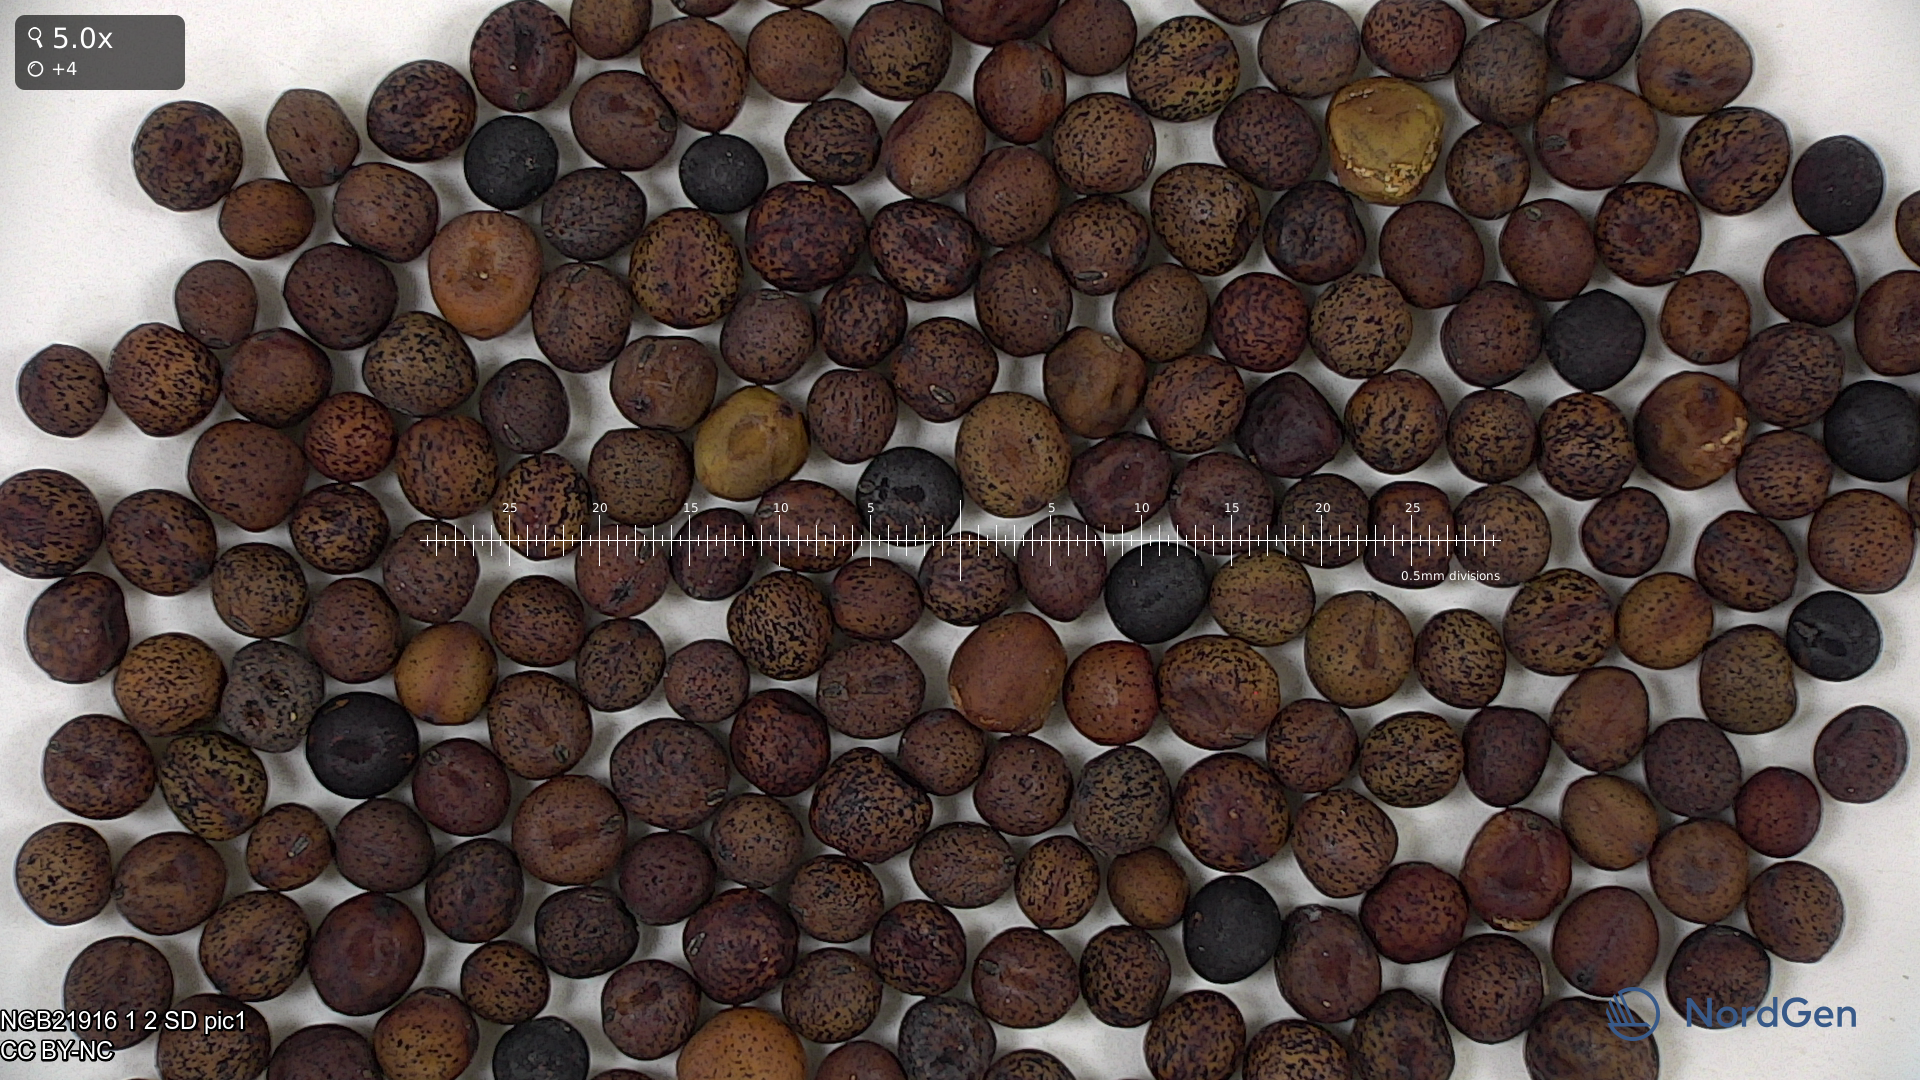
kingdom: Plantae
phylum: Tracheophyta
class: Magnoliopsida
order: Fabales
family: Fabaceae
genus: Lathyrus
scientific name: Lathyrus oleraceus
